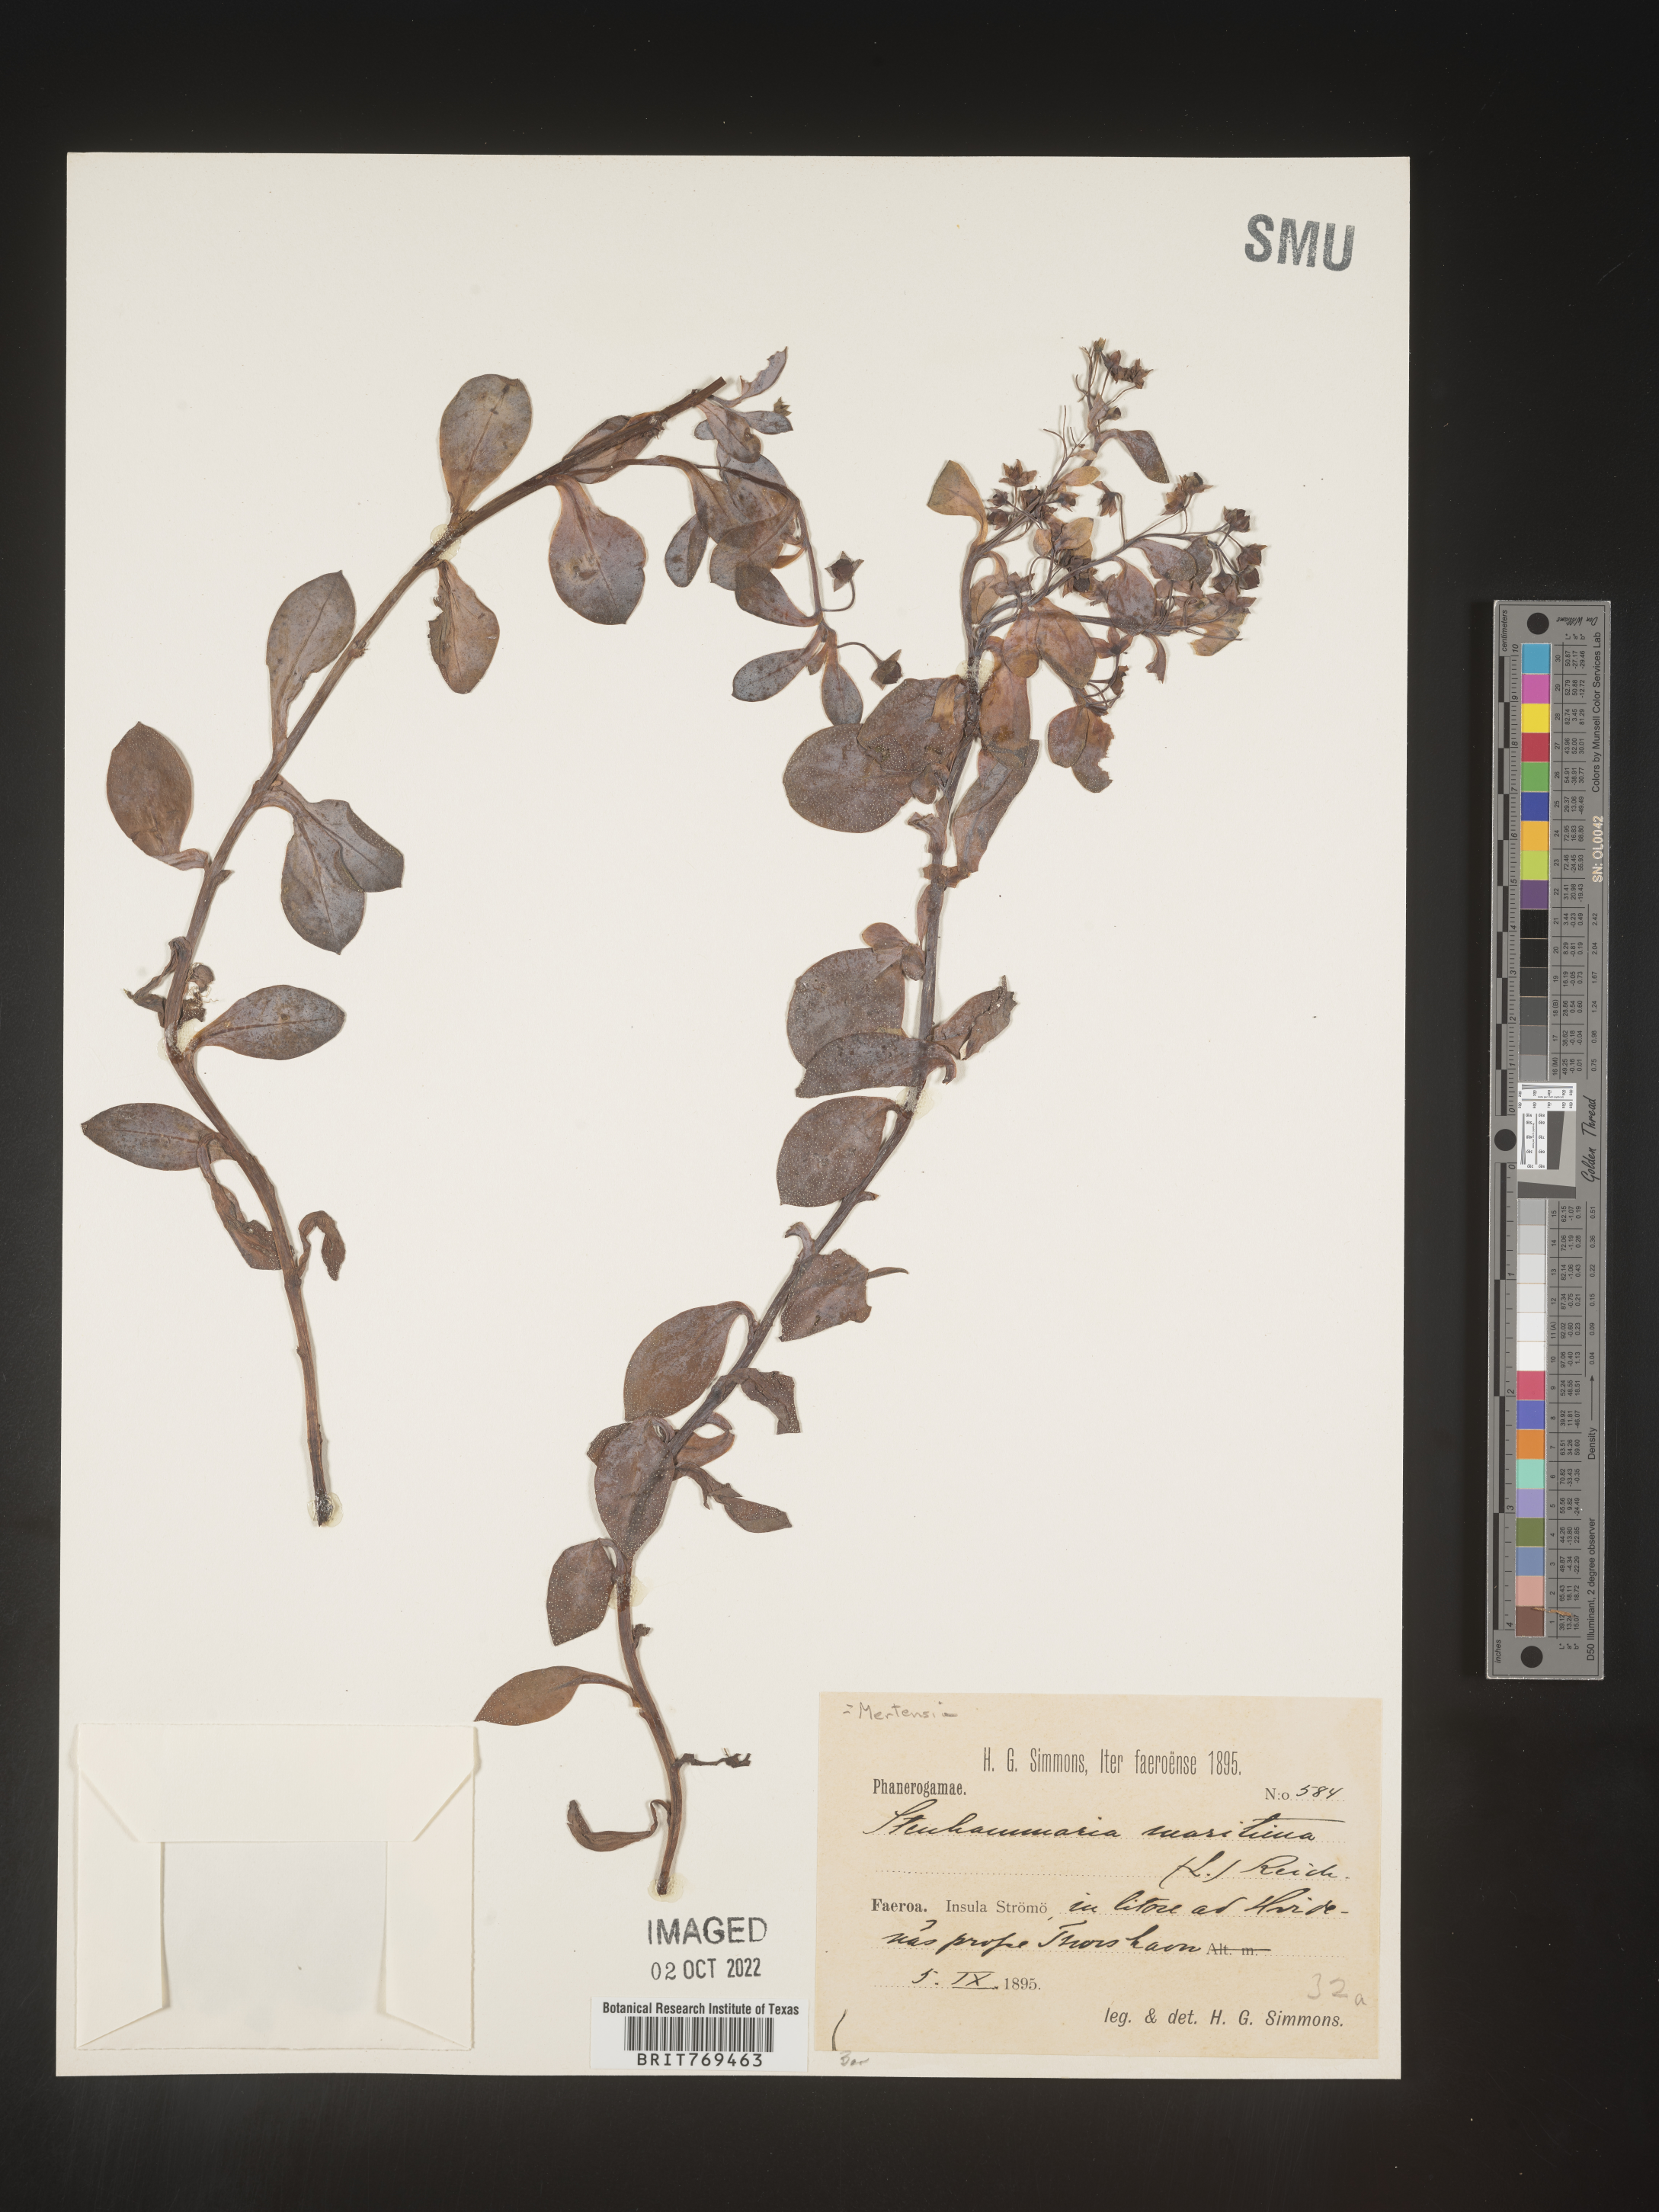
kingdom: Plantae
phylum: Tracheophyta
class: Magnoliopsida
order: Boraginales
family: Boraginaceae
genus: Mertensia
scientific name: Mertensia
